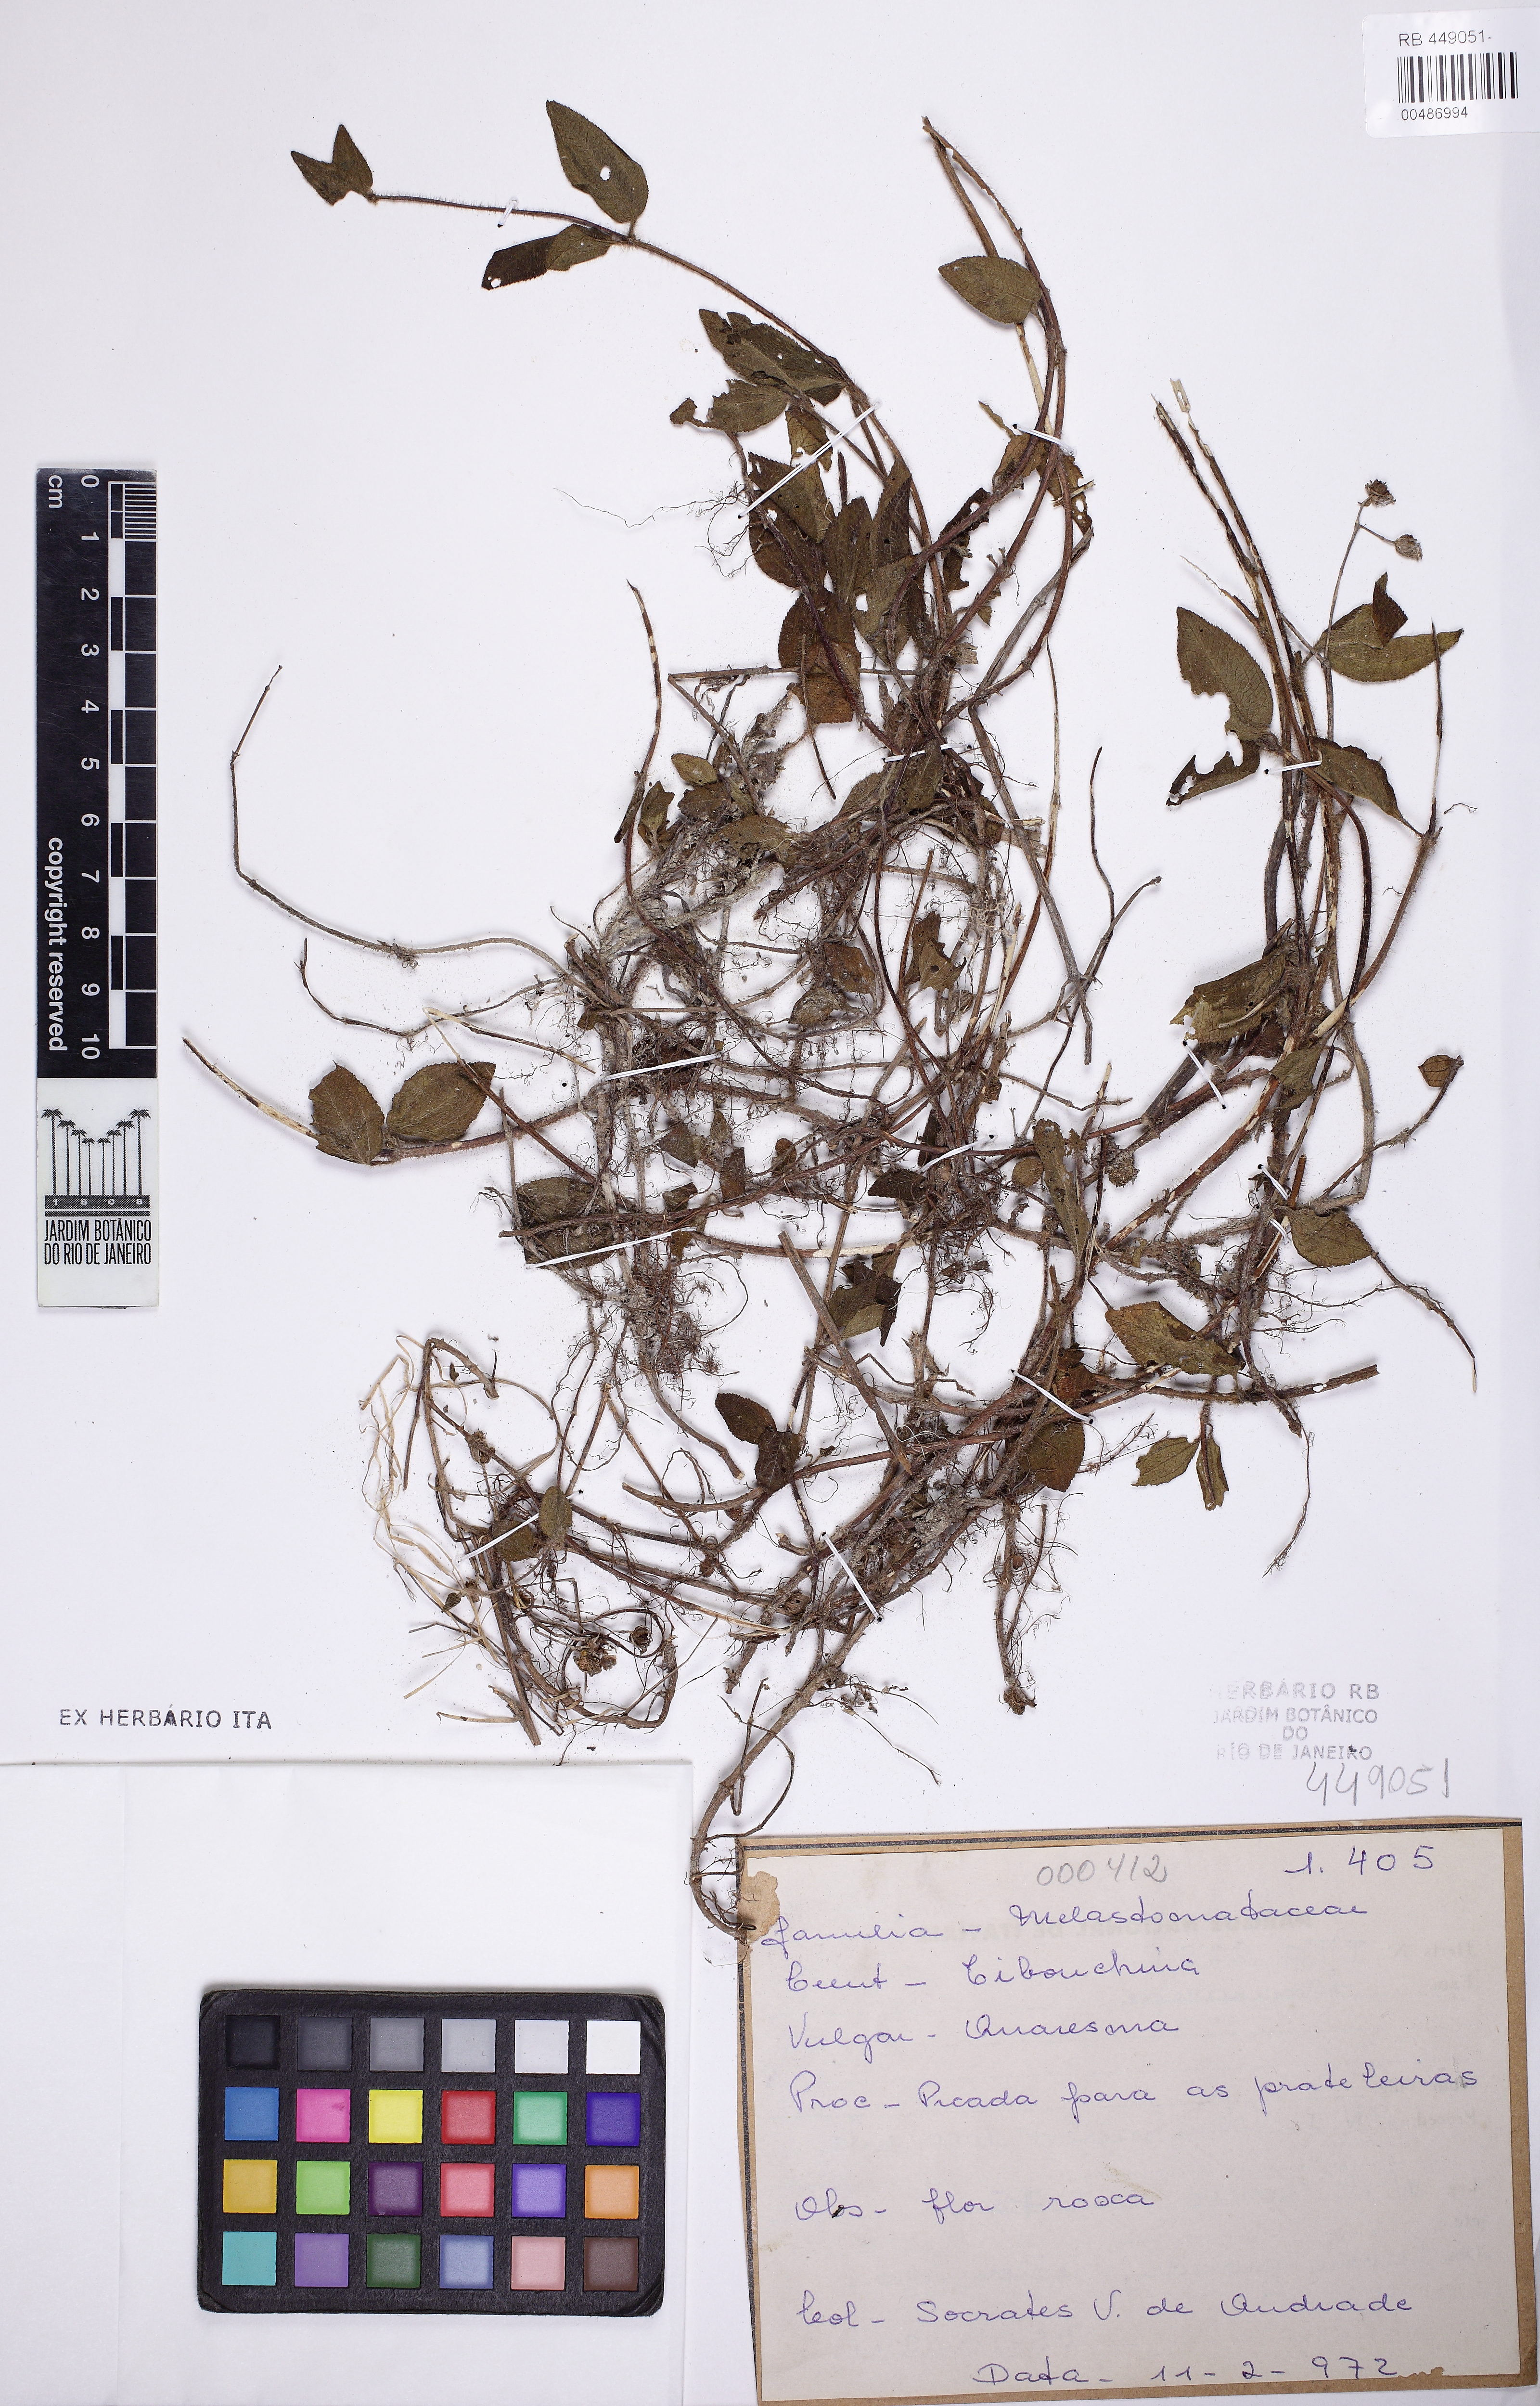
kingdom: Plantae
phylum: Tracheophyta
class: Magnoliopsida
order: Myrtales
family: Melastomataceae
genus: Tibouchina
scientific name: Tibouchina
